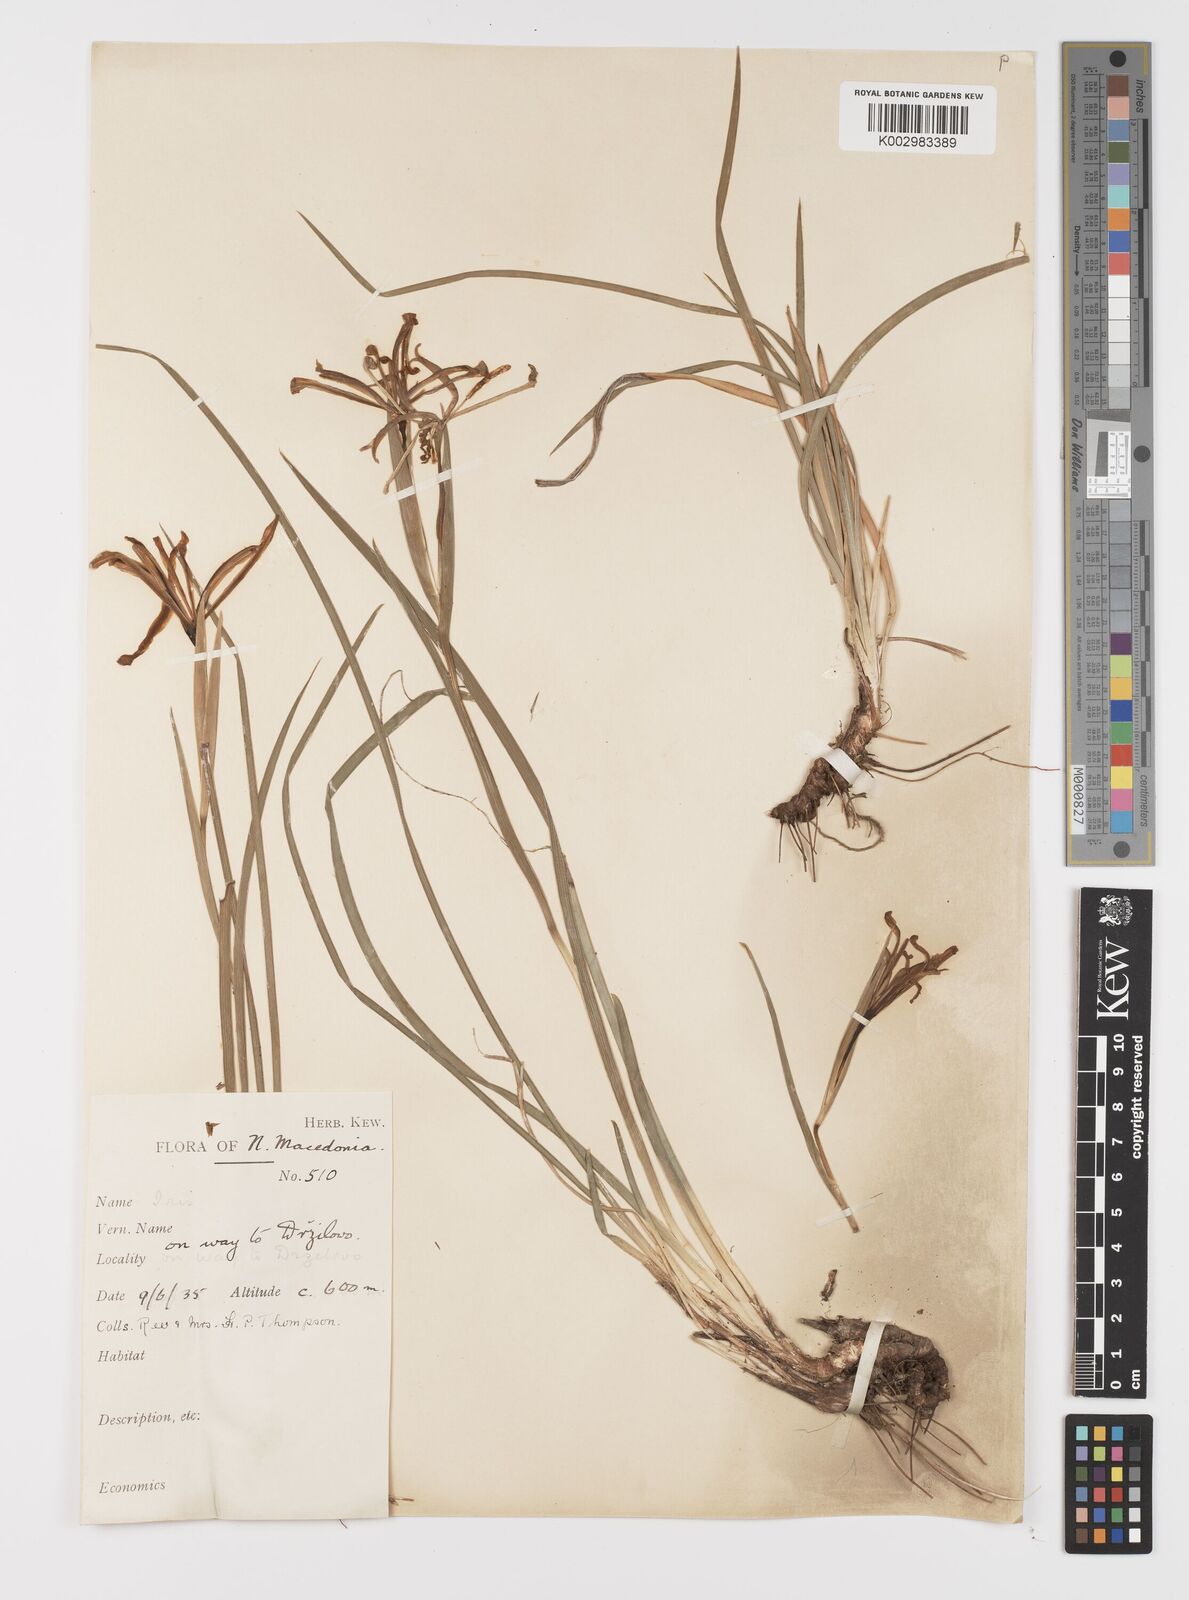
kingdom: Plantae
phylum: Tracheophyta
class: Liliopsida
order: Asparagales
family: Iridaceae
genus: Iris
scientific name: Iris sintenisii
